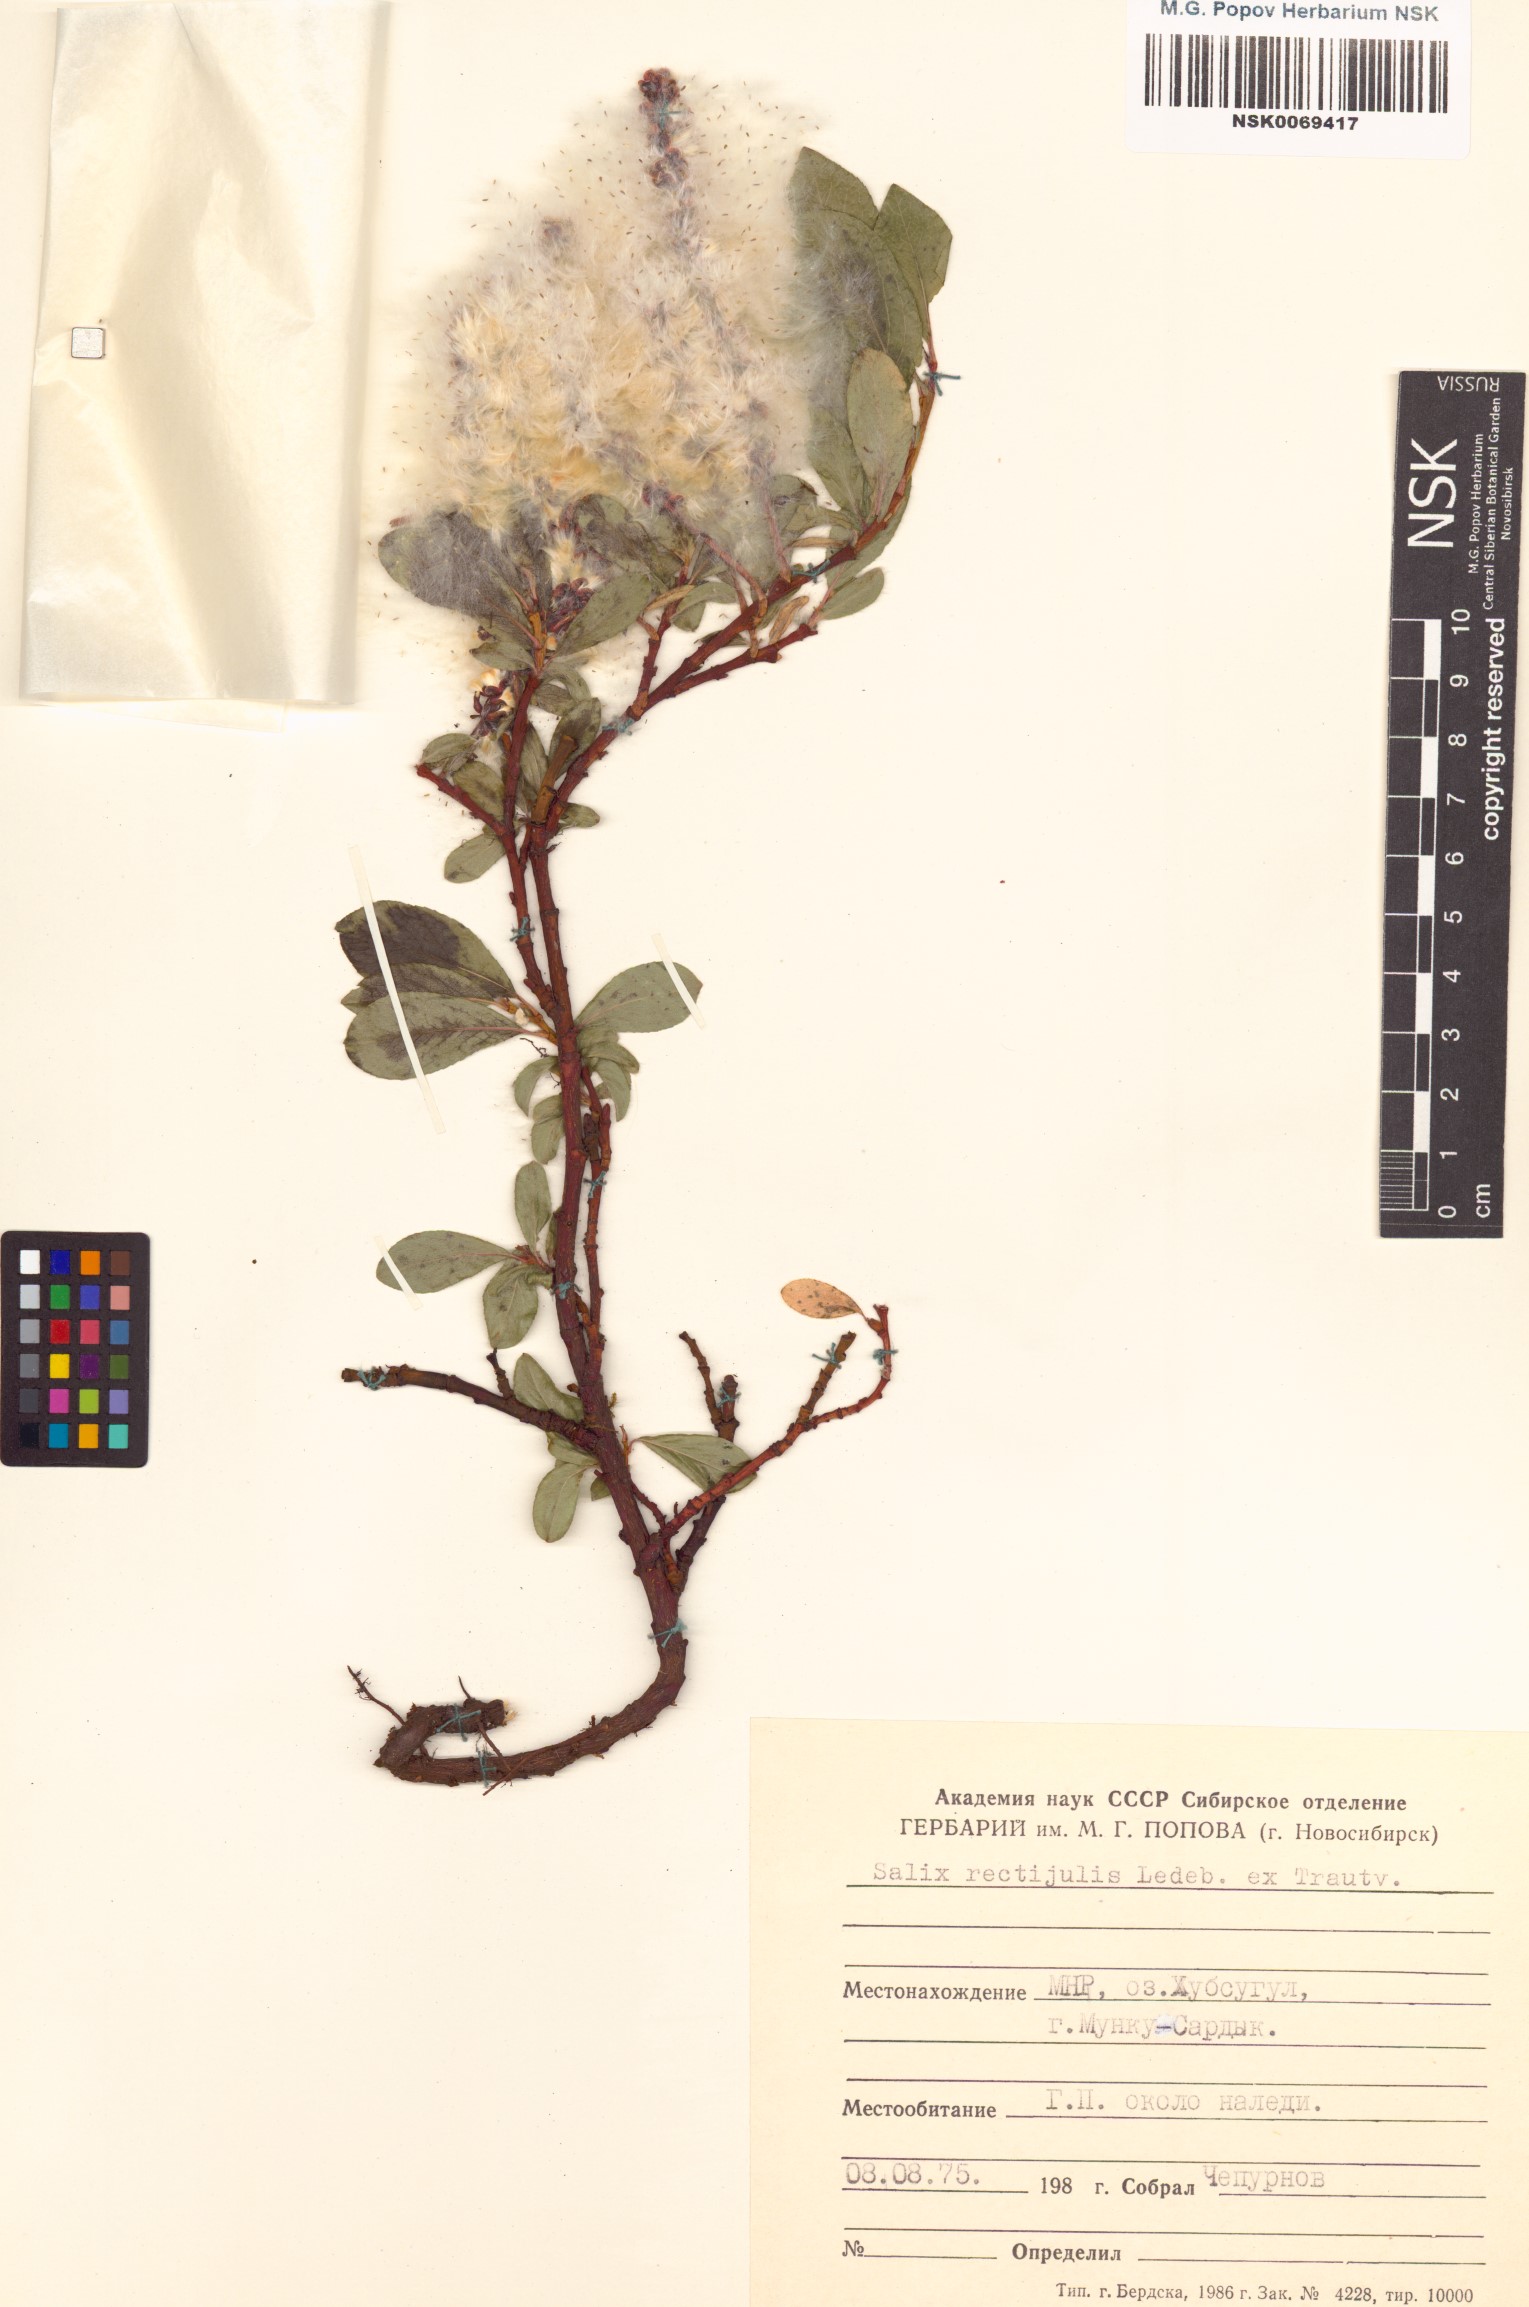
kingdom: Plantae
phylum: Tracheophyta
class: Magnoliopsida
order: Malpighiales
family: Salicaceae
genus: Salix
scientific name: Salix rectijulis
